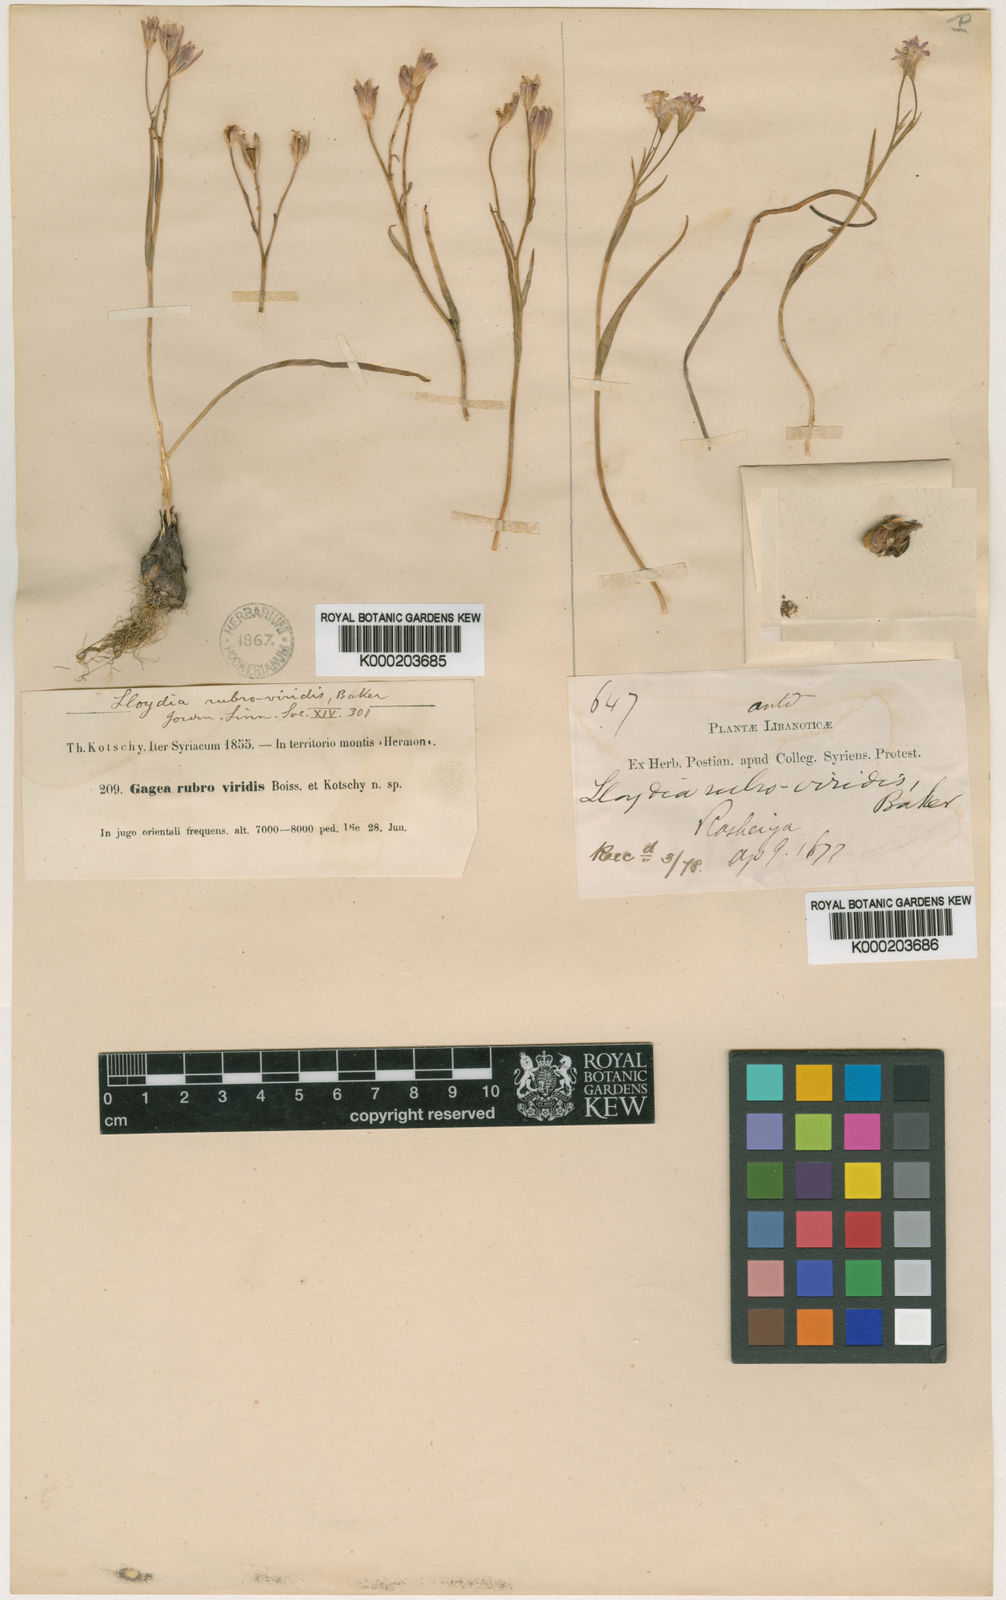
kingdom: Plantae
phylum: Tracheophyta
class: Liliopsida
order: Liliales
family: Liliaceae
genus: Gagea
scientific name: Gagea libanotica
